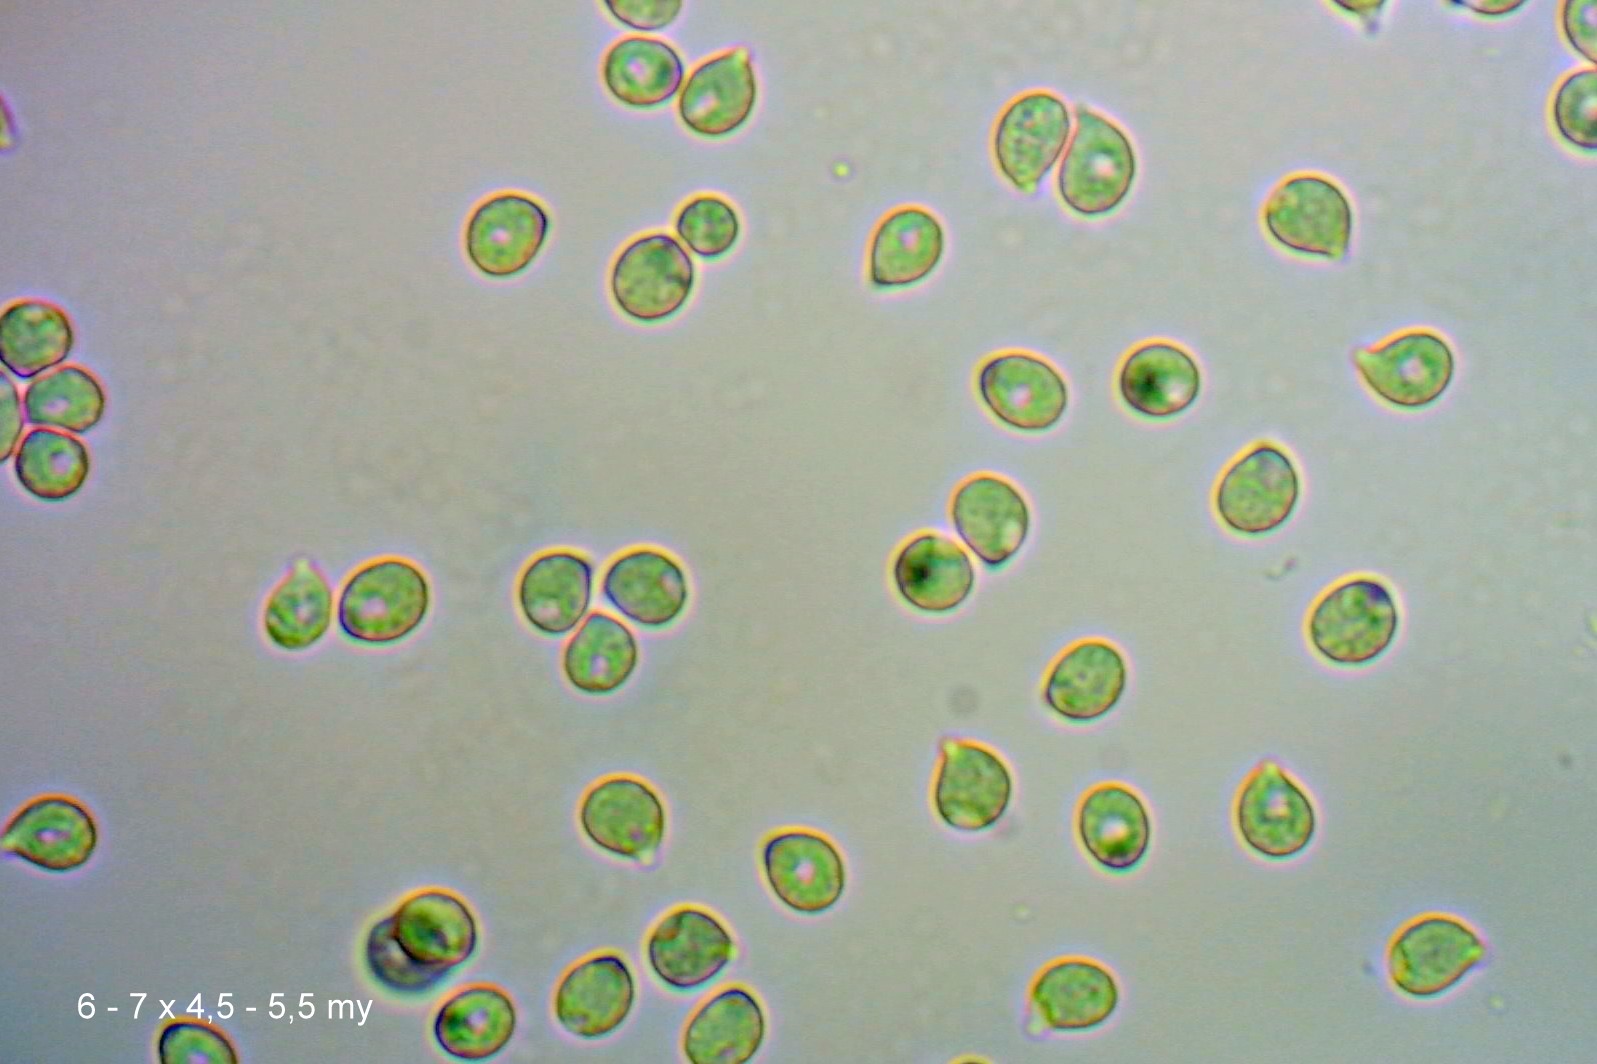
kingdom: Fungi
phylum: Basidiomycota
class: Agaricomycetes
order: Agaricales
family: Hygrophoraceae
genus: Cuphophyllus
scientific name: Cuphophyllus flavipes
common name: gulfodet vokshat
